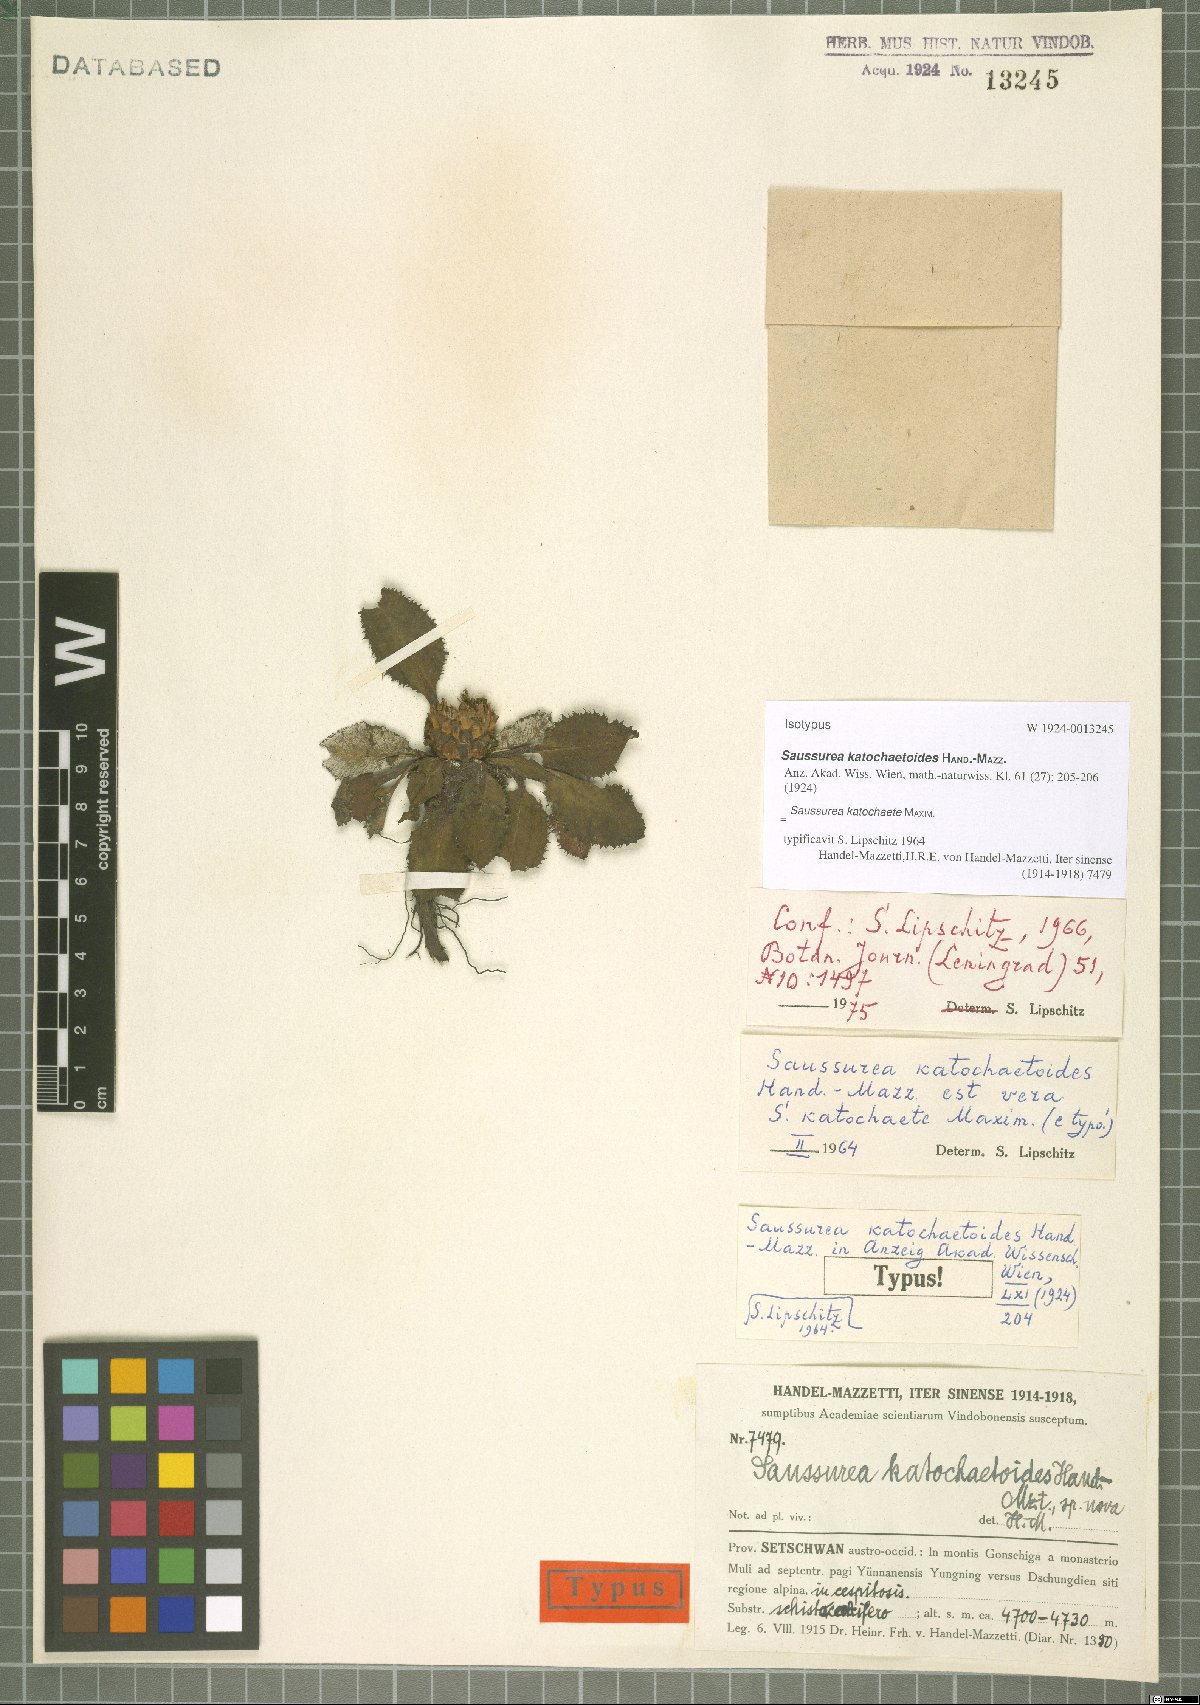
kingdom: Plantae
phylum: Tracheophyta
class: Magnoliopsida
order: Asterales
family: Asteraceae
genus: Saussurea
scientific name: Saussurea katochaete
